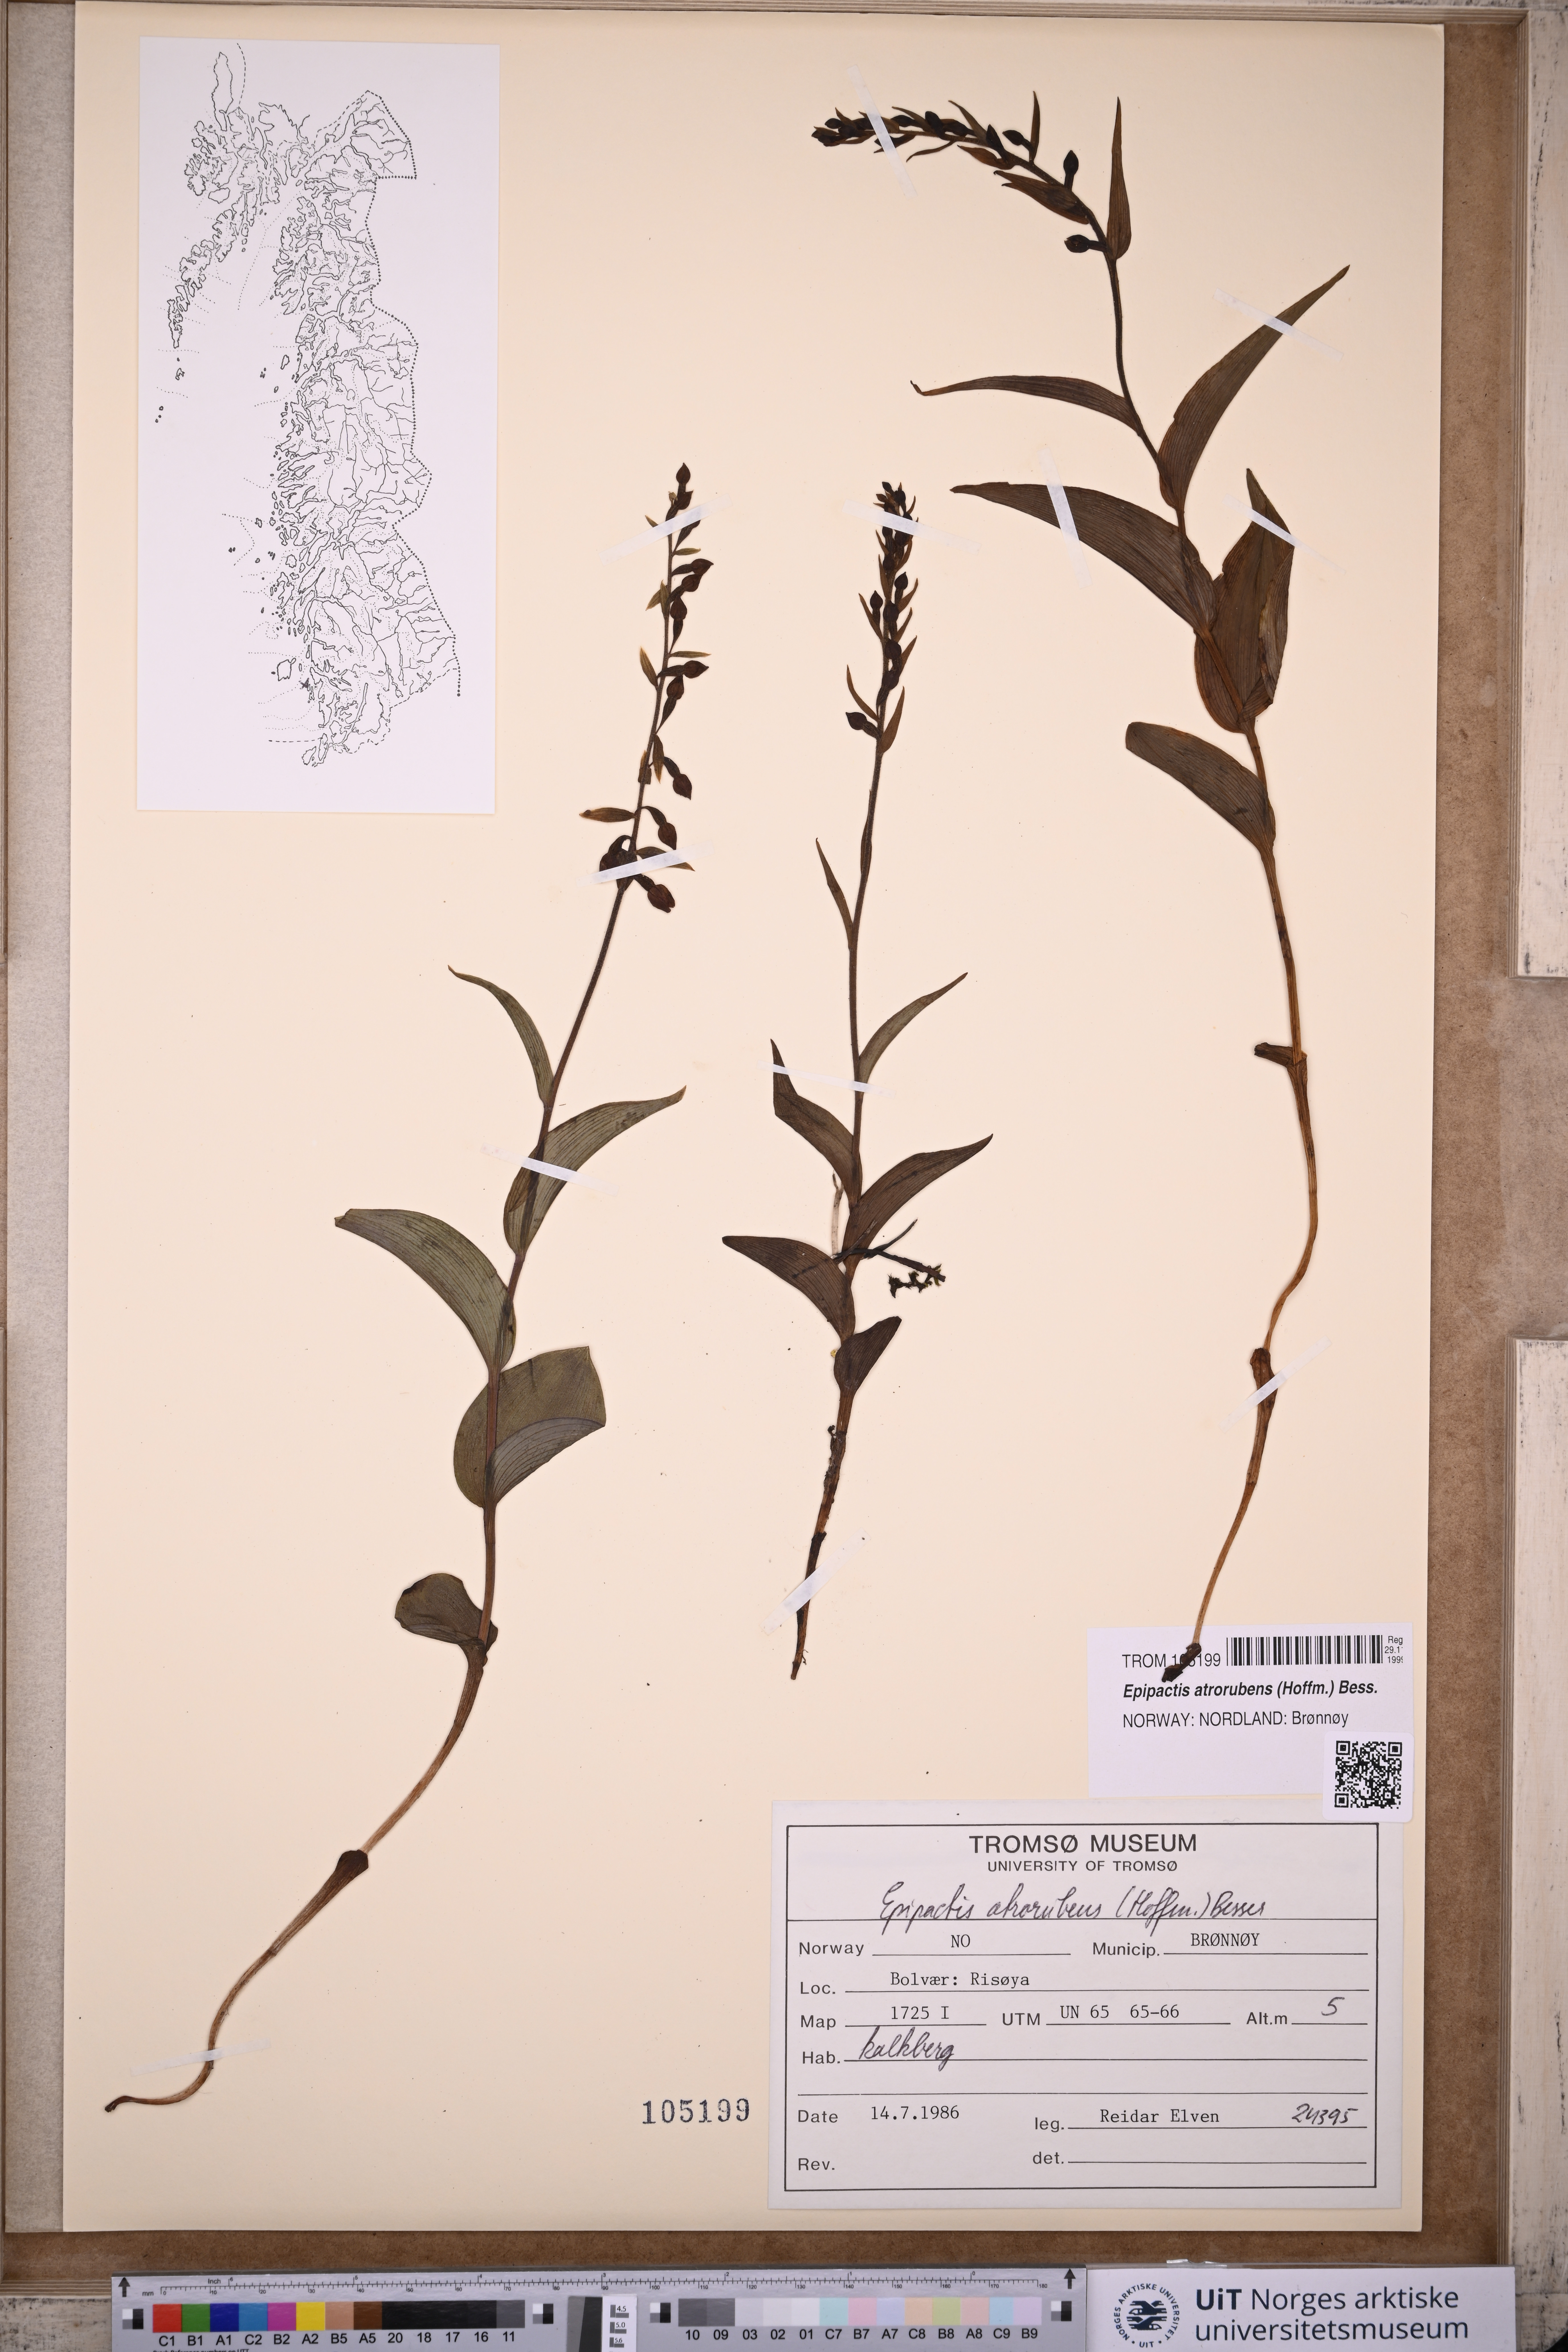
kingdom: Plantae
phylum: Tracheophyta
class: Liliopsida
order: Asparagales
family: Orchidaceae
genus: Epipactis
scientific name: Epipactis atrorubens
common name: Dark-red helleborine
